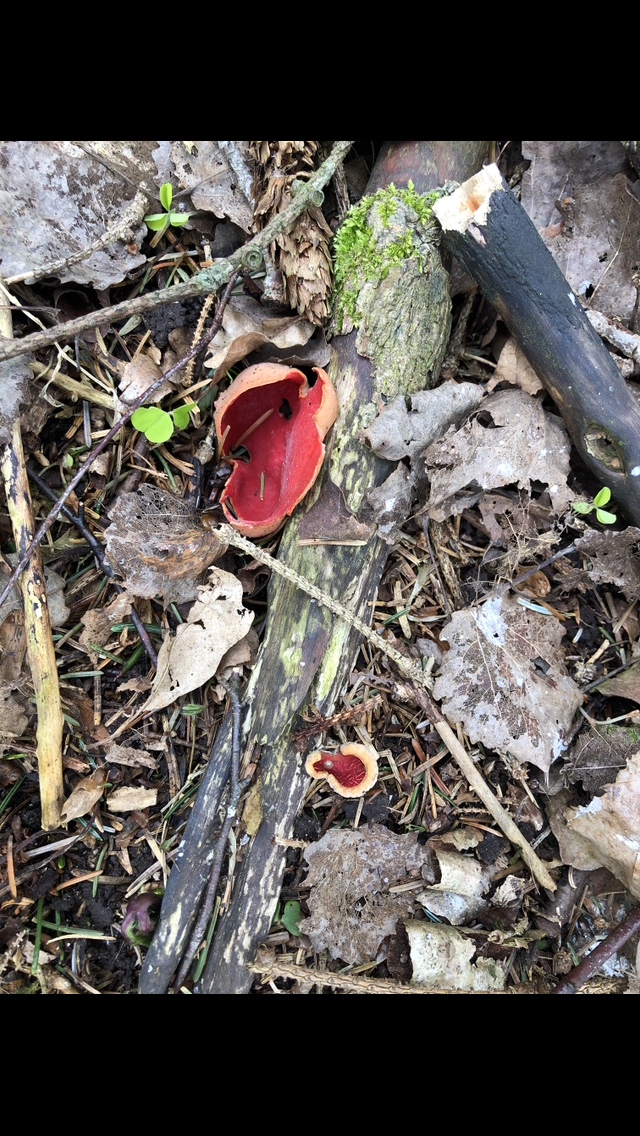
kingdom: Fungi
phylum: Ascomycota
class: Pezizomycetes
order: Pezizales
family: Sarcoscyphaceae
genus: Sarcoscypha
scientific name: Sarcoscypha austriaca
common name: krølhåret pragtbæger
